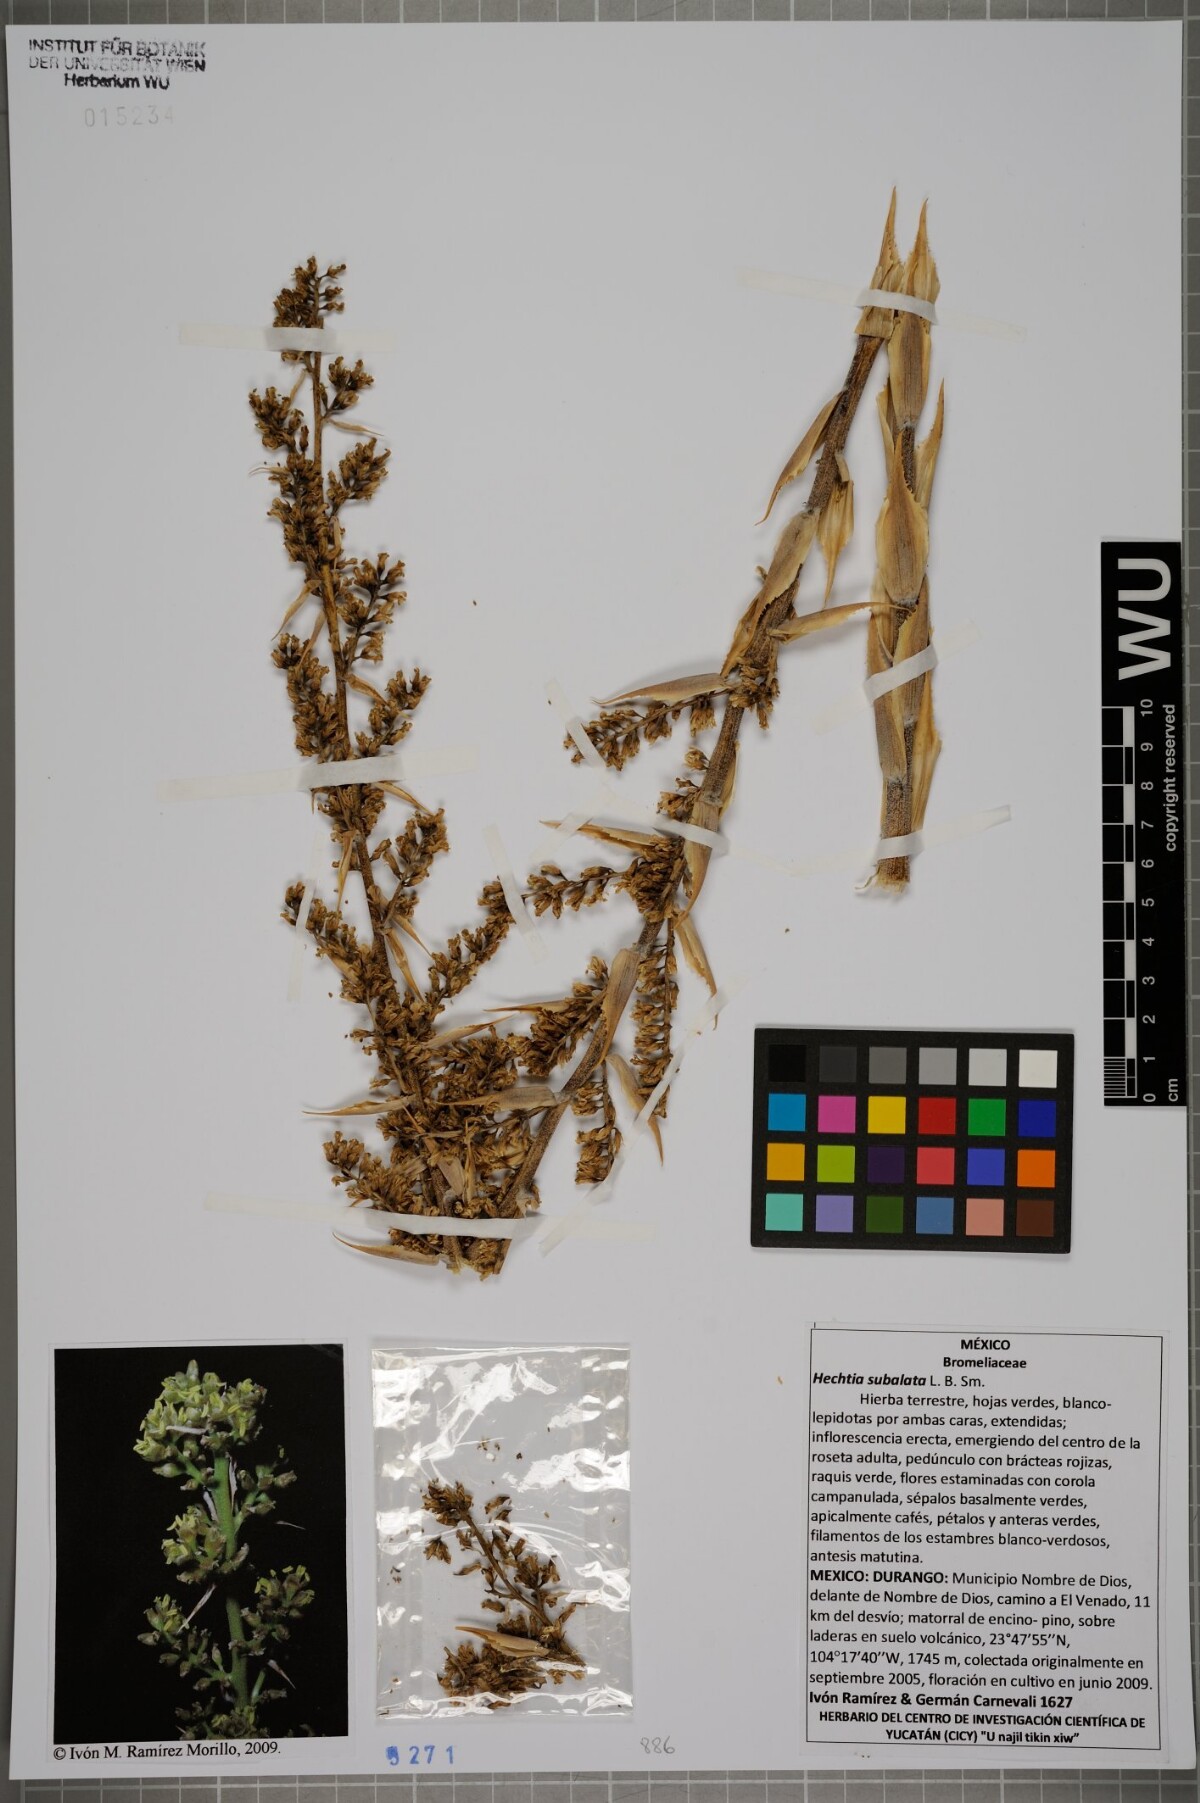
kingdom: Plantae
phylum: Tracheophyta
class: Liliopsida
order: Poales
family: Bromeliaceae
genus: Hechtia
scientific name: Hechtia subalata
